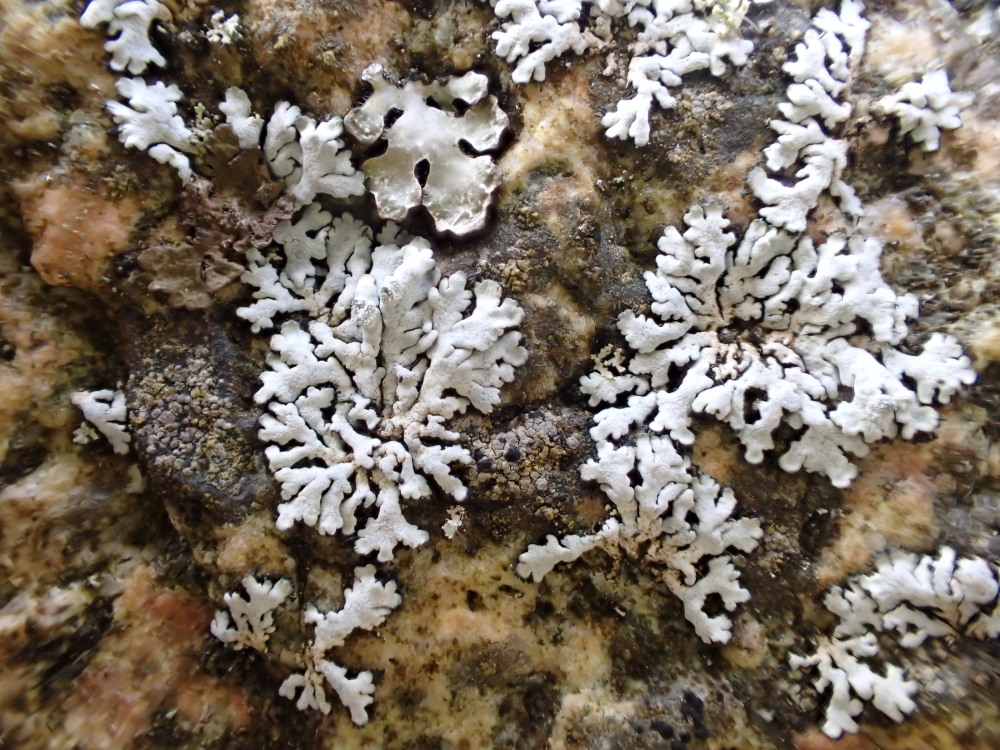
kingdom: Fungi
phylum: Ascomycota
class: Lecanoromycetes
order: Caliciales
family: Physciaceae
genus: Physcia
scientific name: Physcia caesia
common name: blågrå rosetlav
